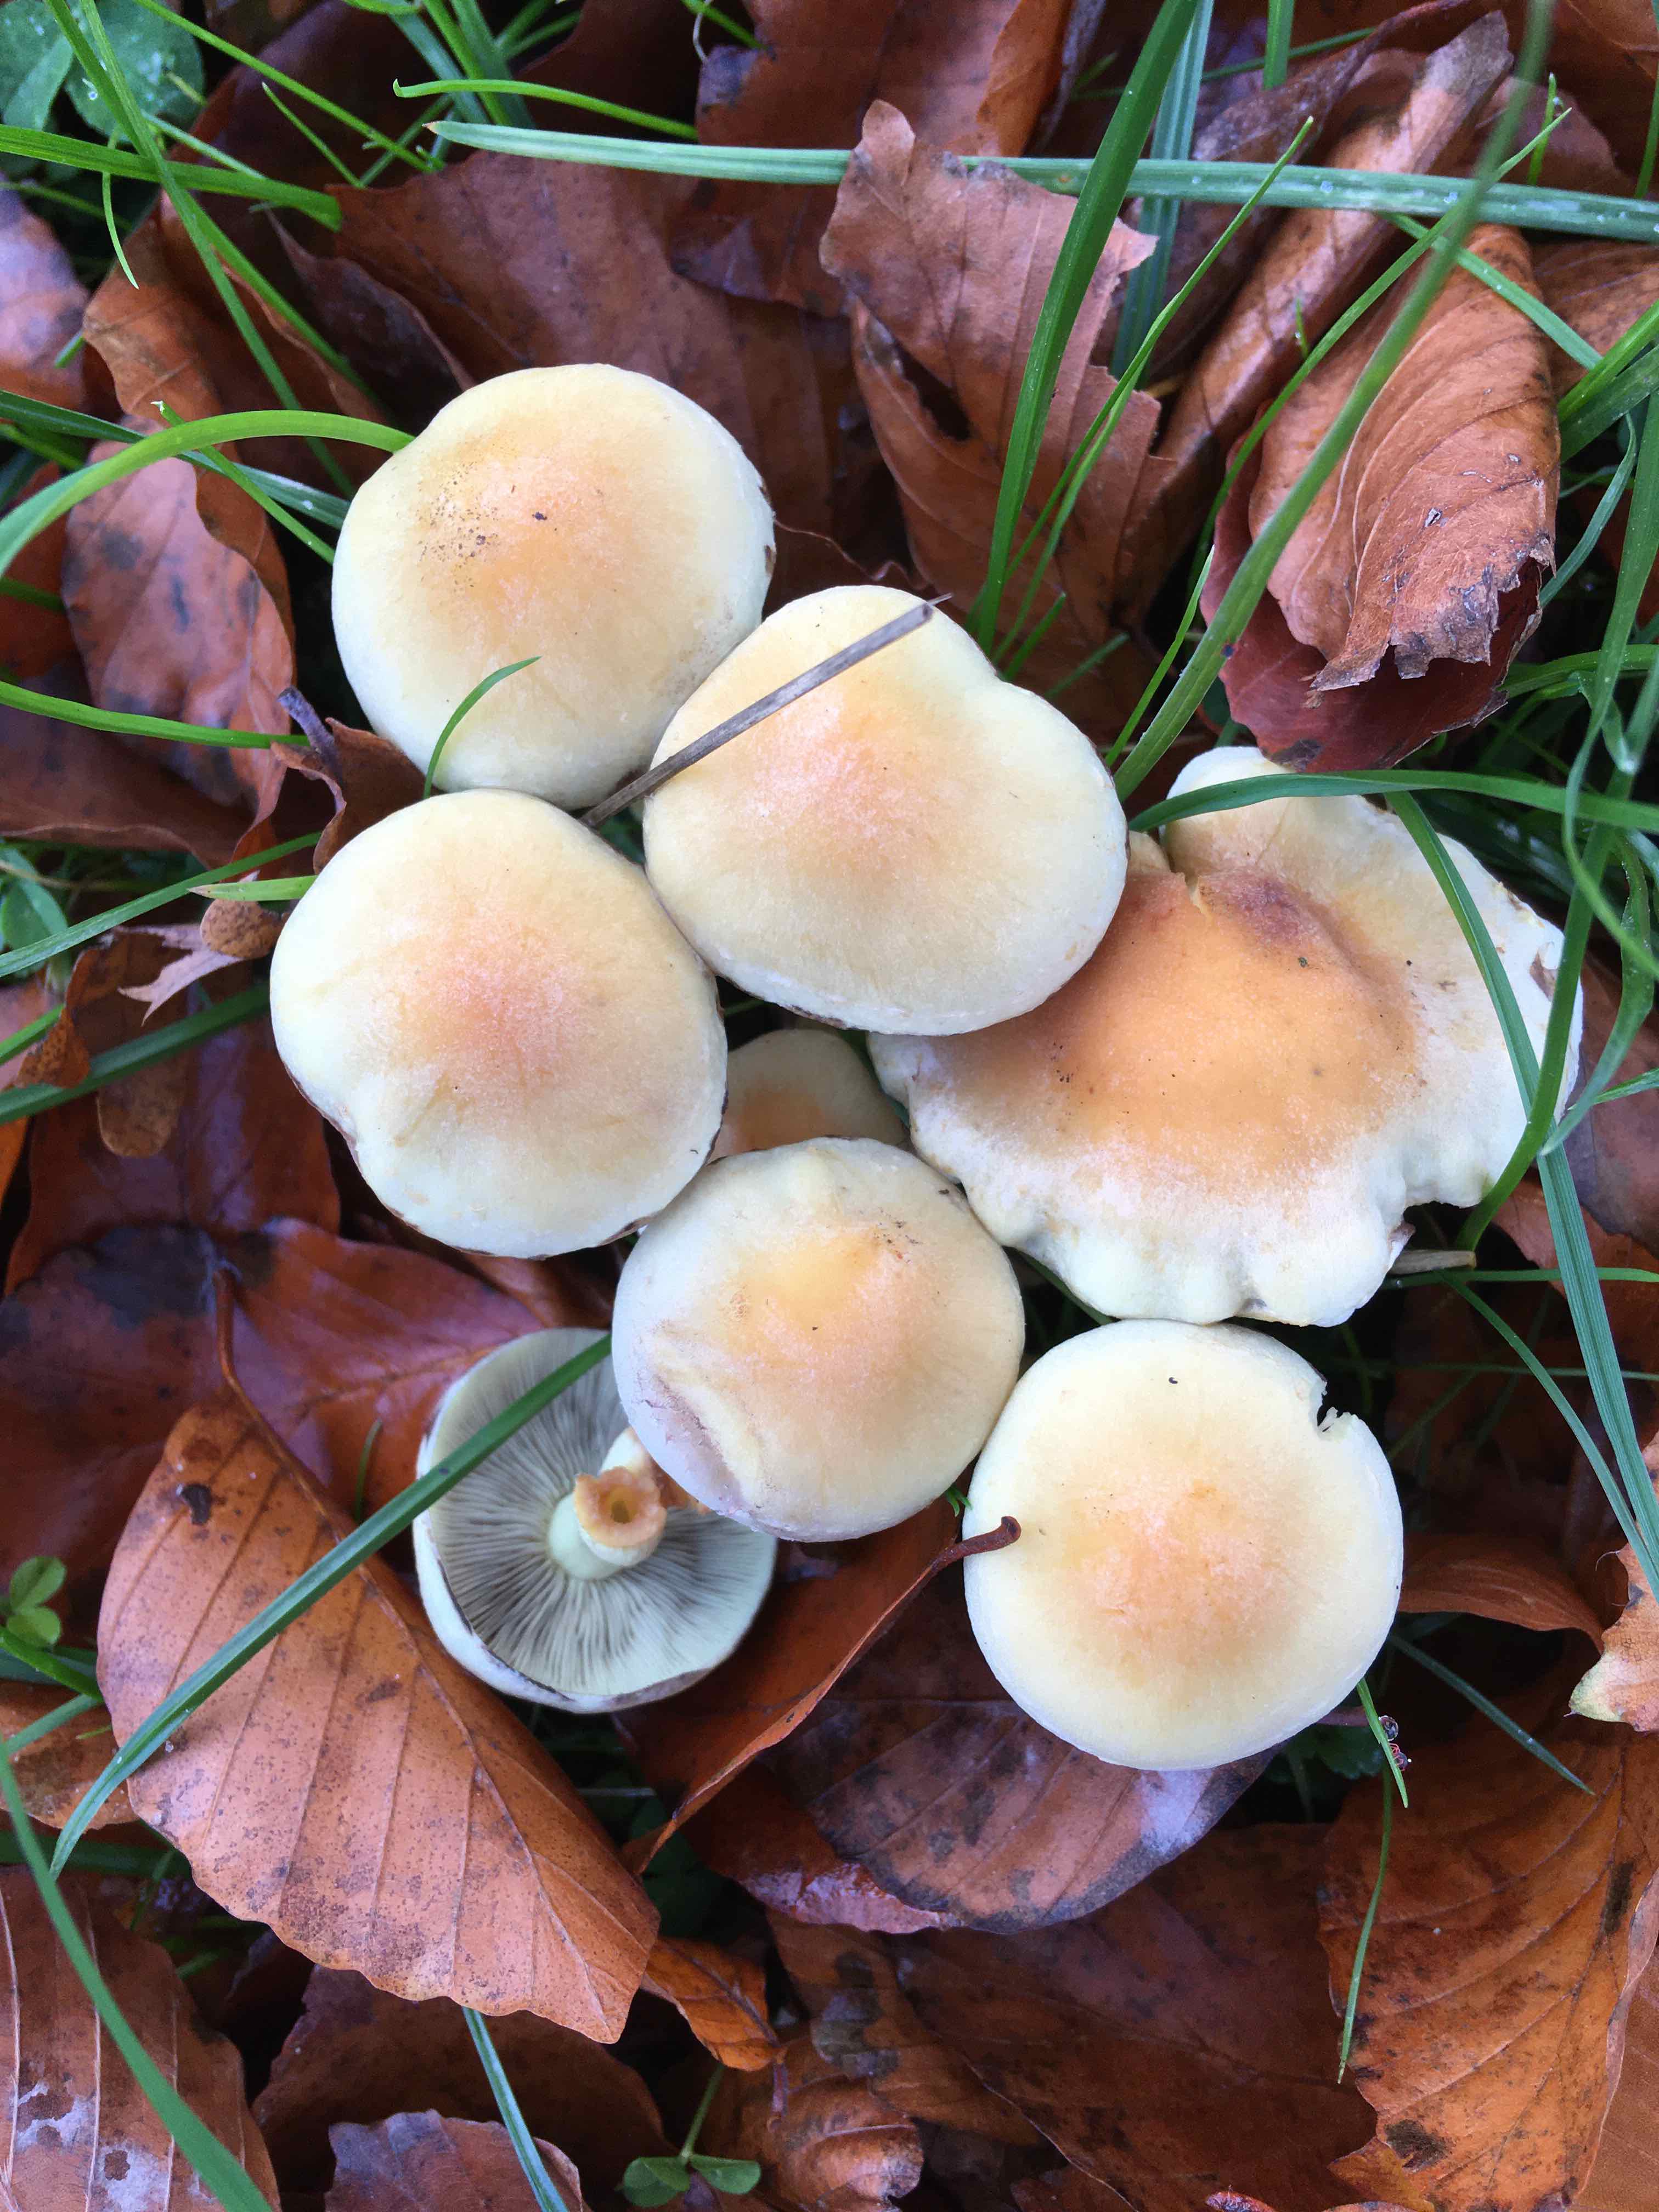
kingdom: Fungi
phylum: Basidiomycota
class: Agaricomycetes
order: Agaricales
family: Strophariaceae
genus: Hypholoma
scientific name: Hypholoma fasciculare
